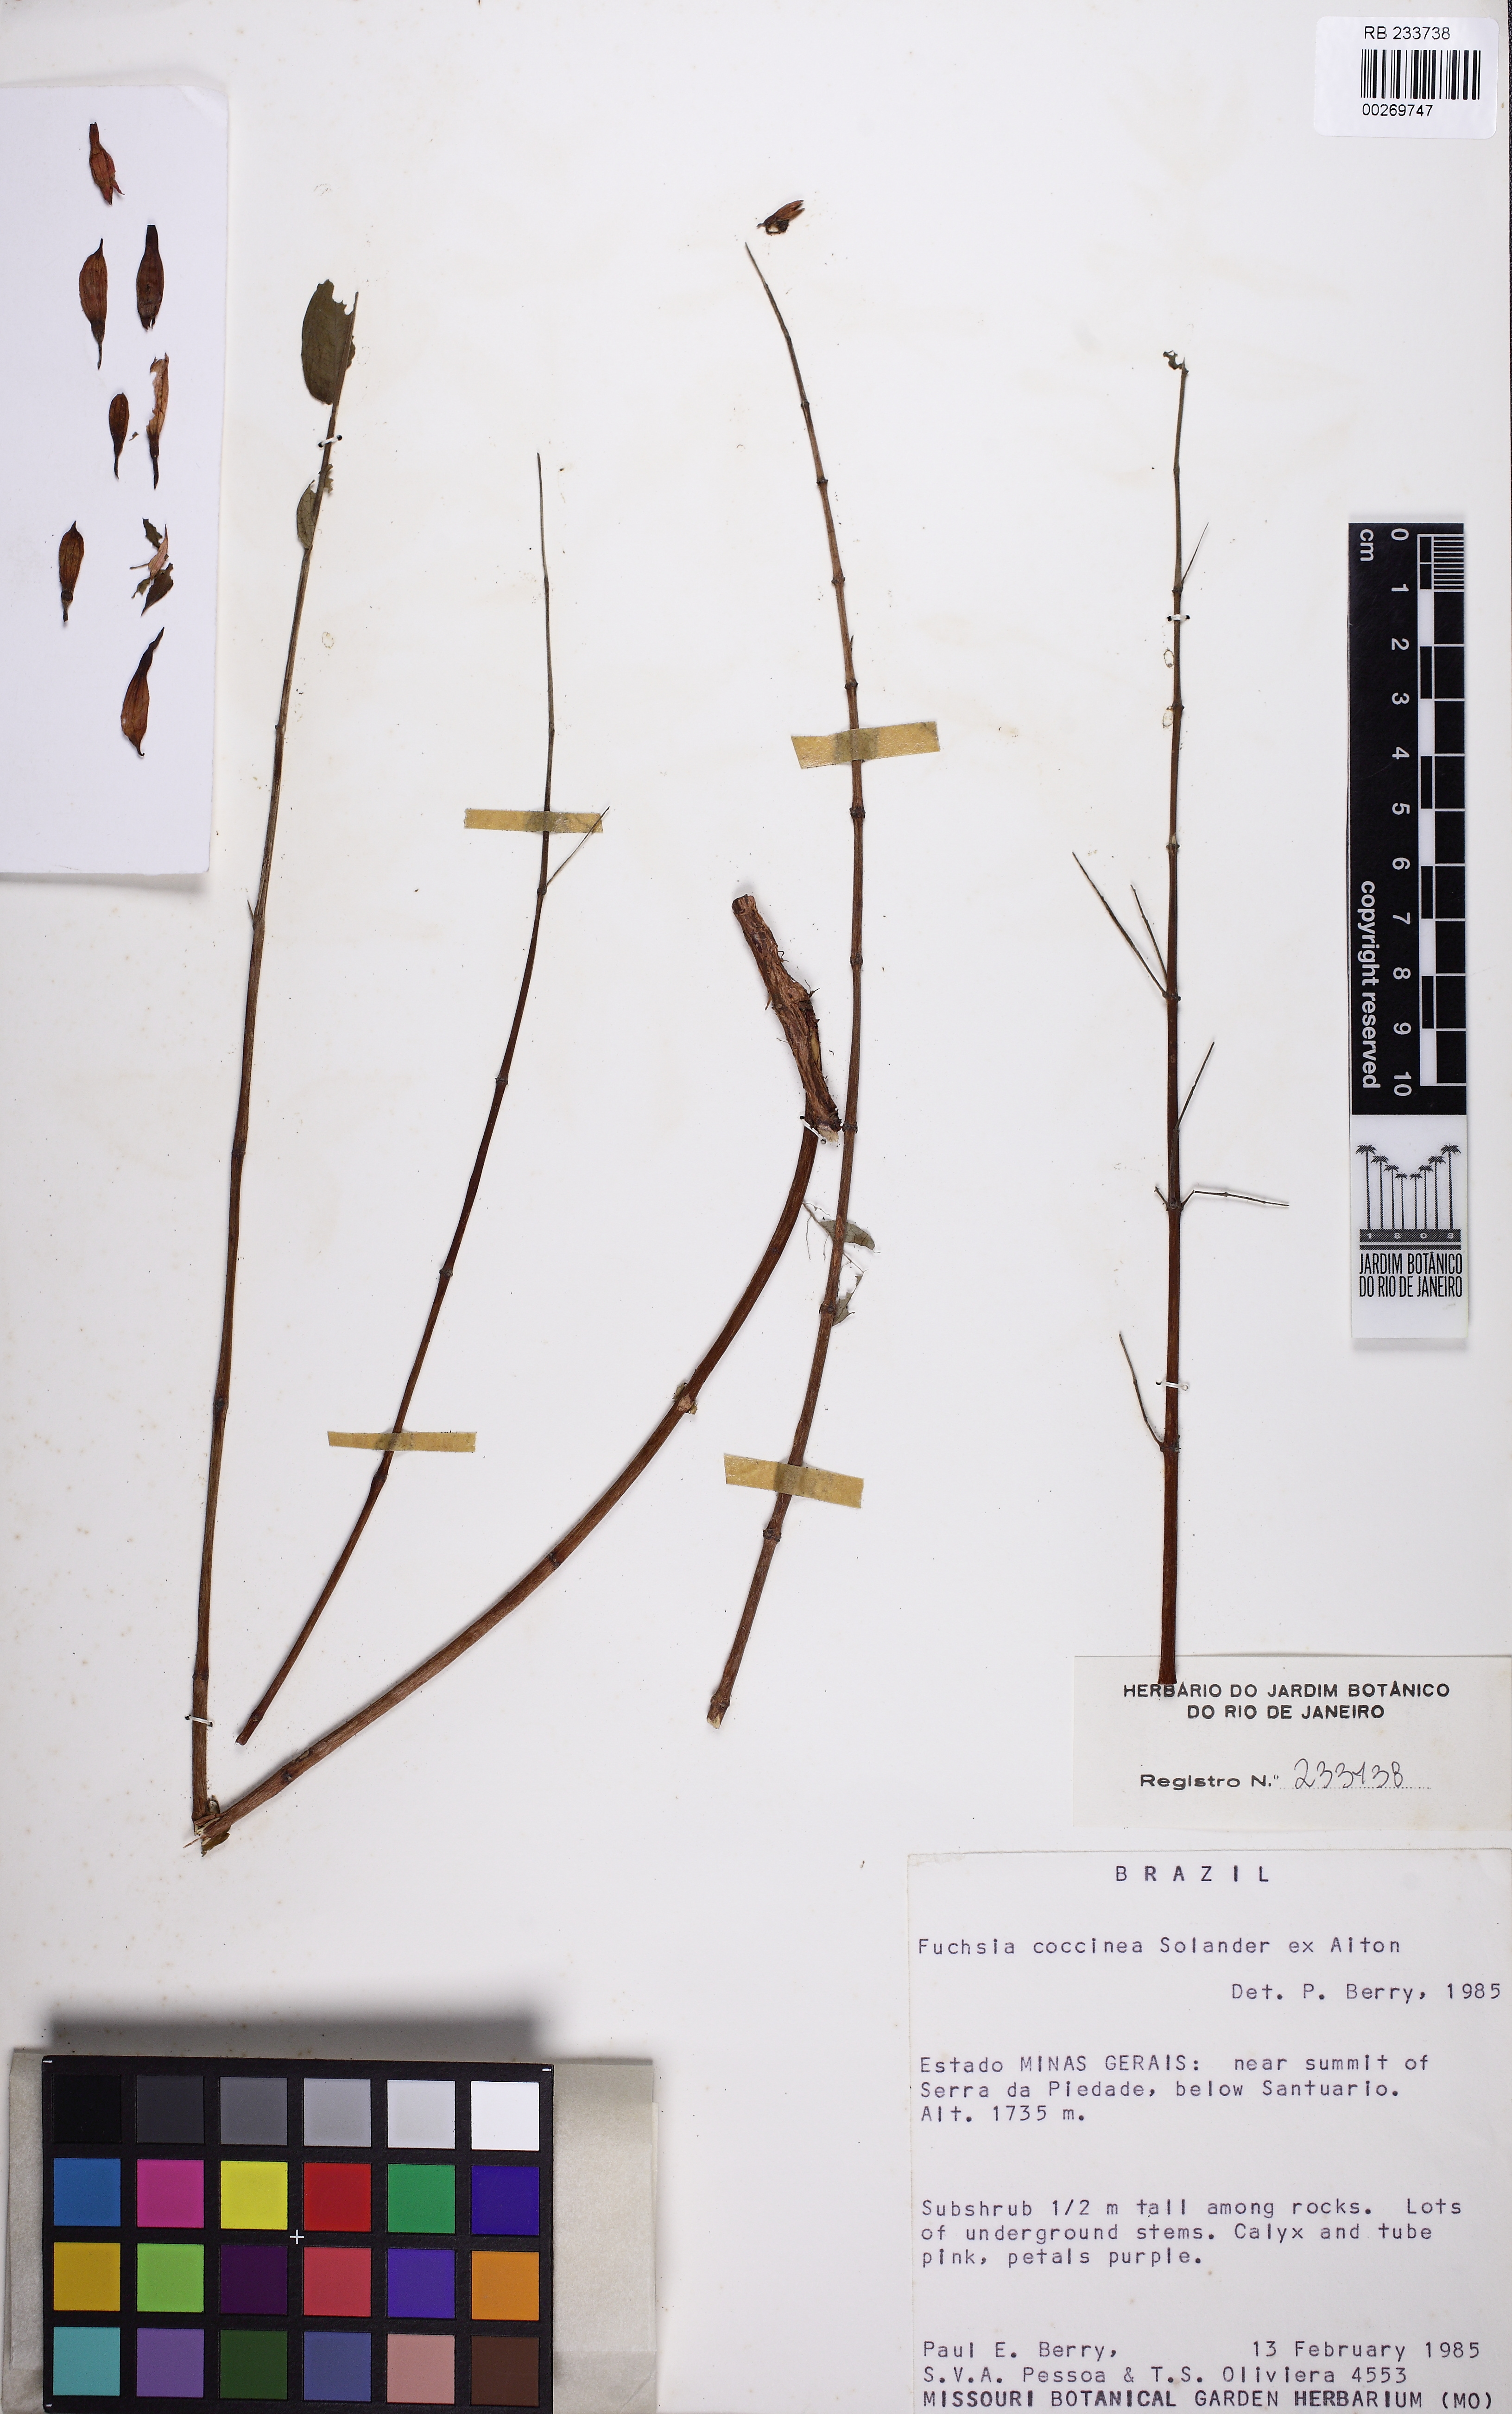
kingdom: Plantae
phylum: Tracheophyta
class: Magnoliopsida
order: Myrtales
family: Onagraceae
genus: Fuchsia
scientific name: Fuchsia coccinea
